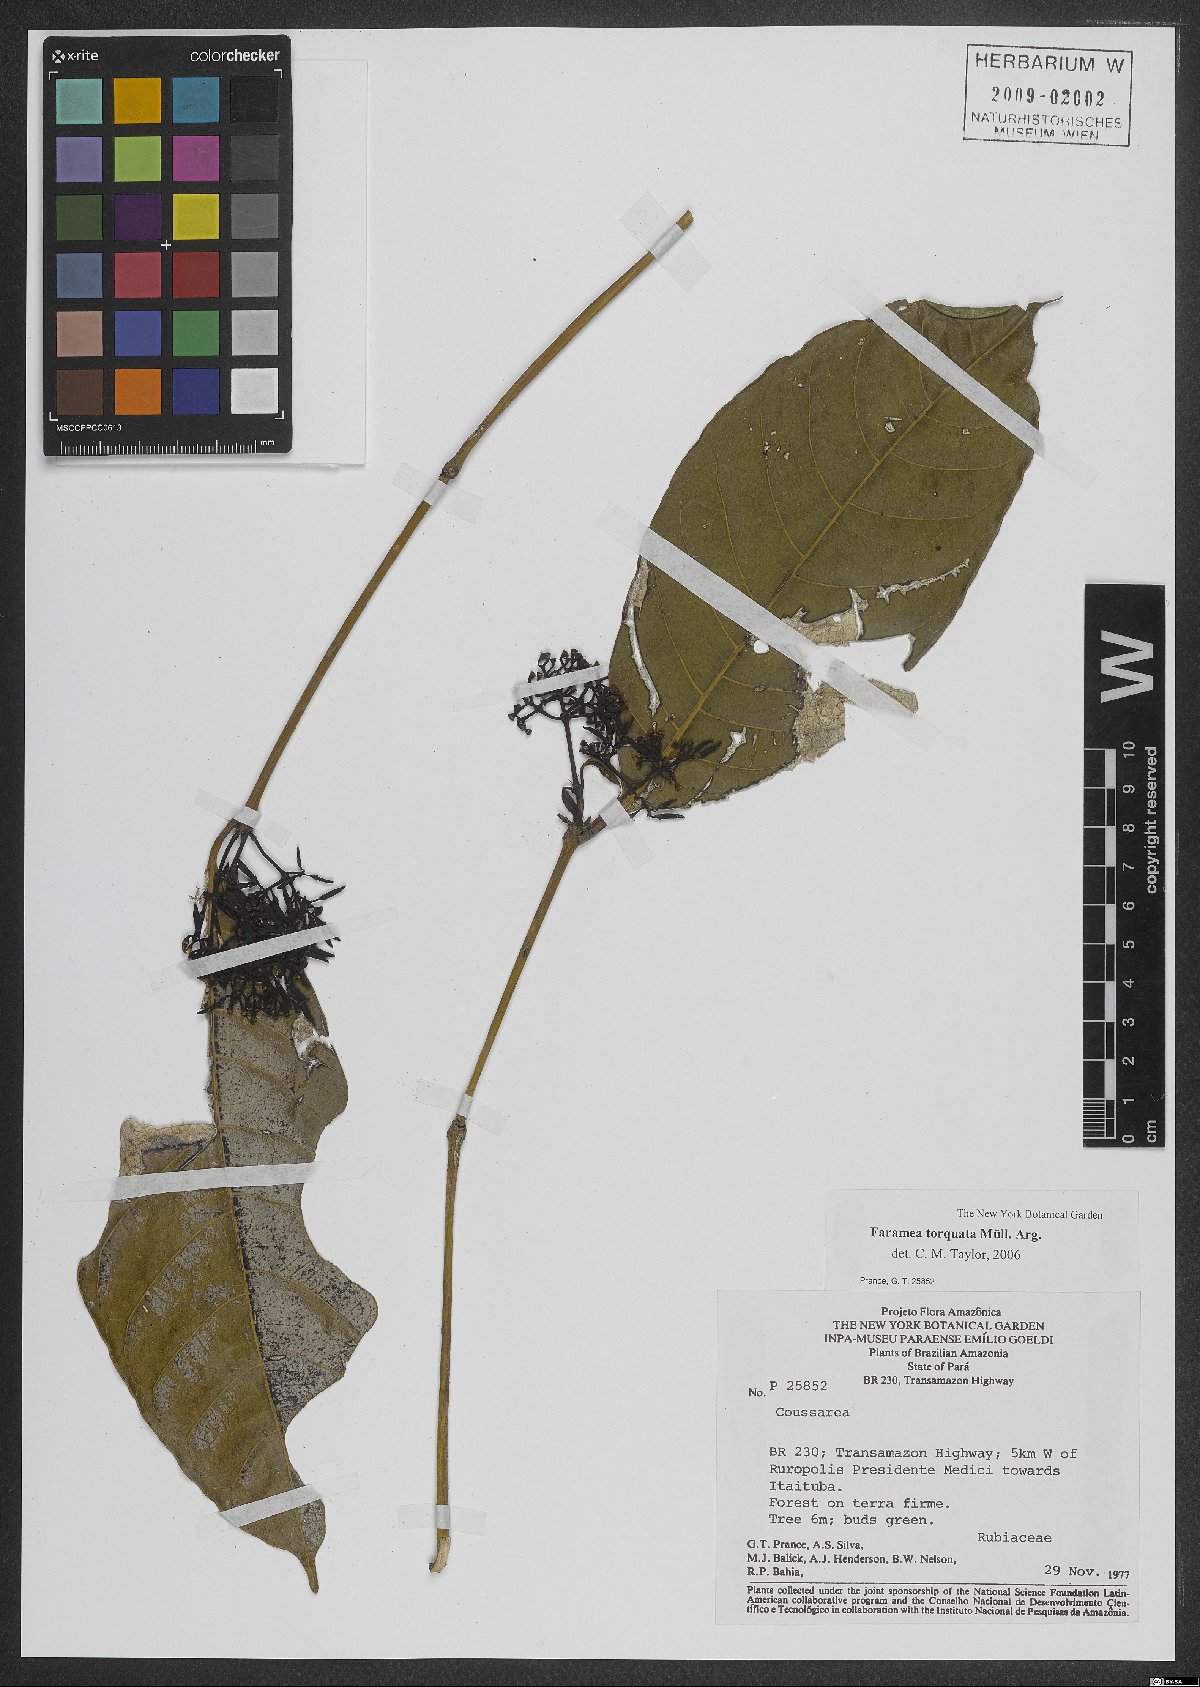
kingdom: Plantae
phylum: Tracheophyta
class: Magnoliopsida
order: Gentianales
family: Rubiaceae
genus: Faramea
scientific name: Faramea torquata
